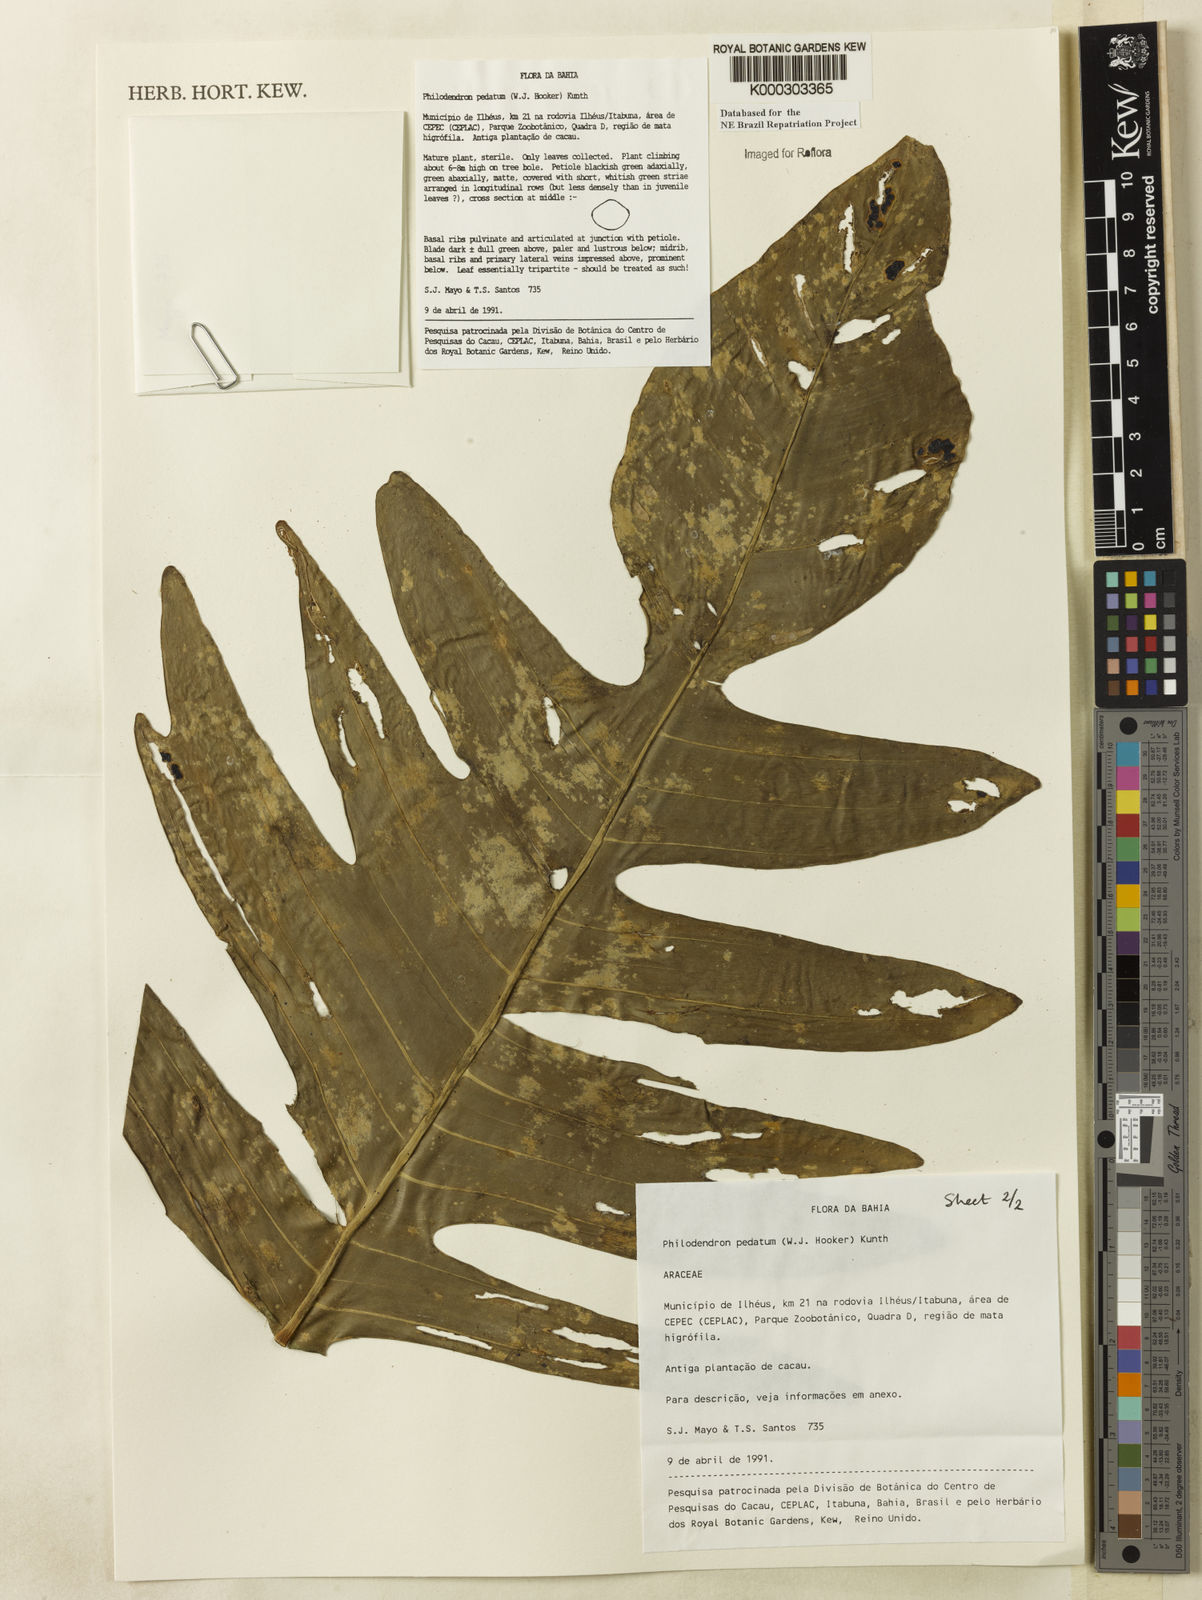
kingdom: Plantae
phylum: Tracheophyta
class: Liliopsida
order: Alismatales
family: Araceae
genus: Philodendron
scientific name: Philodendron pedatum
